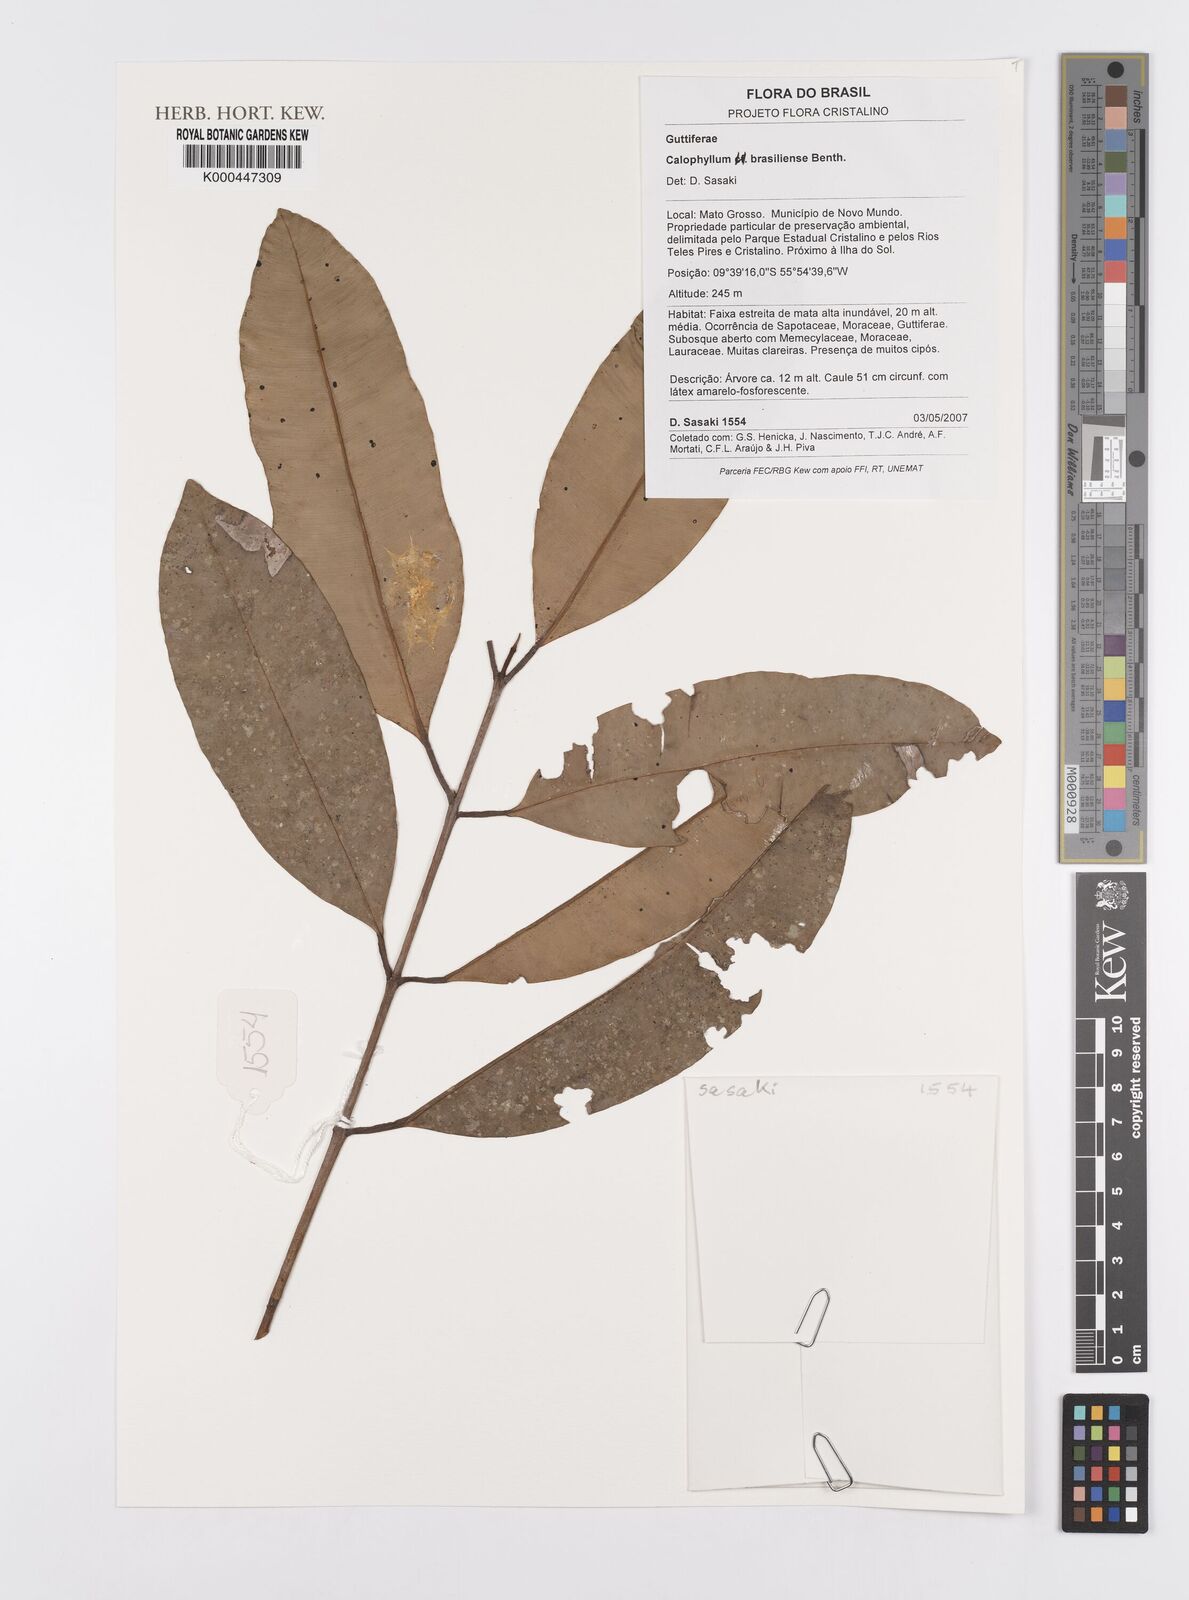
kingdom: Plantae
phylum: Tracheophyta
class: Magnoliopsida
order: Malpighiales
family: Calophyllaceae
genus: Calophyllum
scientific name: Calophyllum brasiliense
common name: Santa maria
